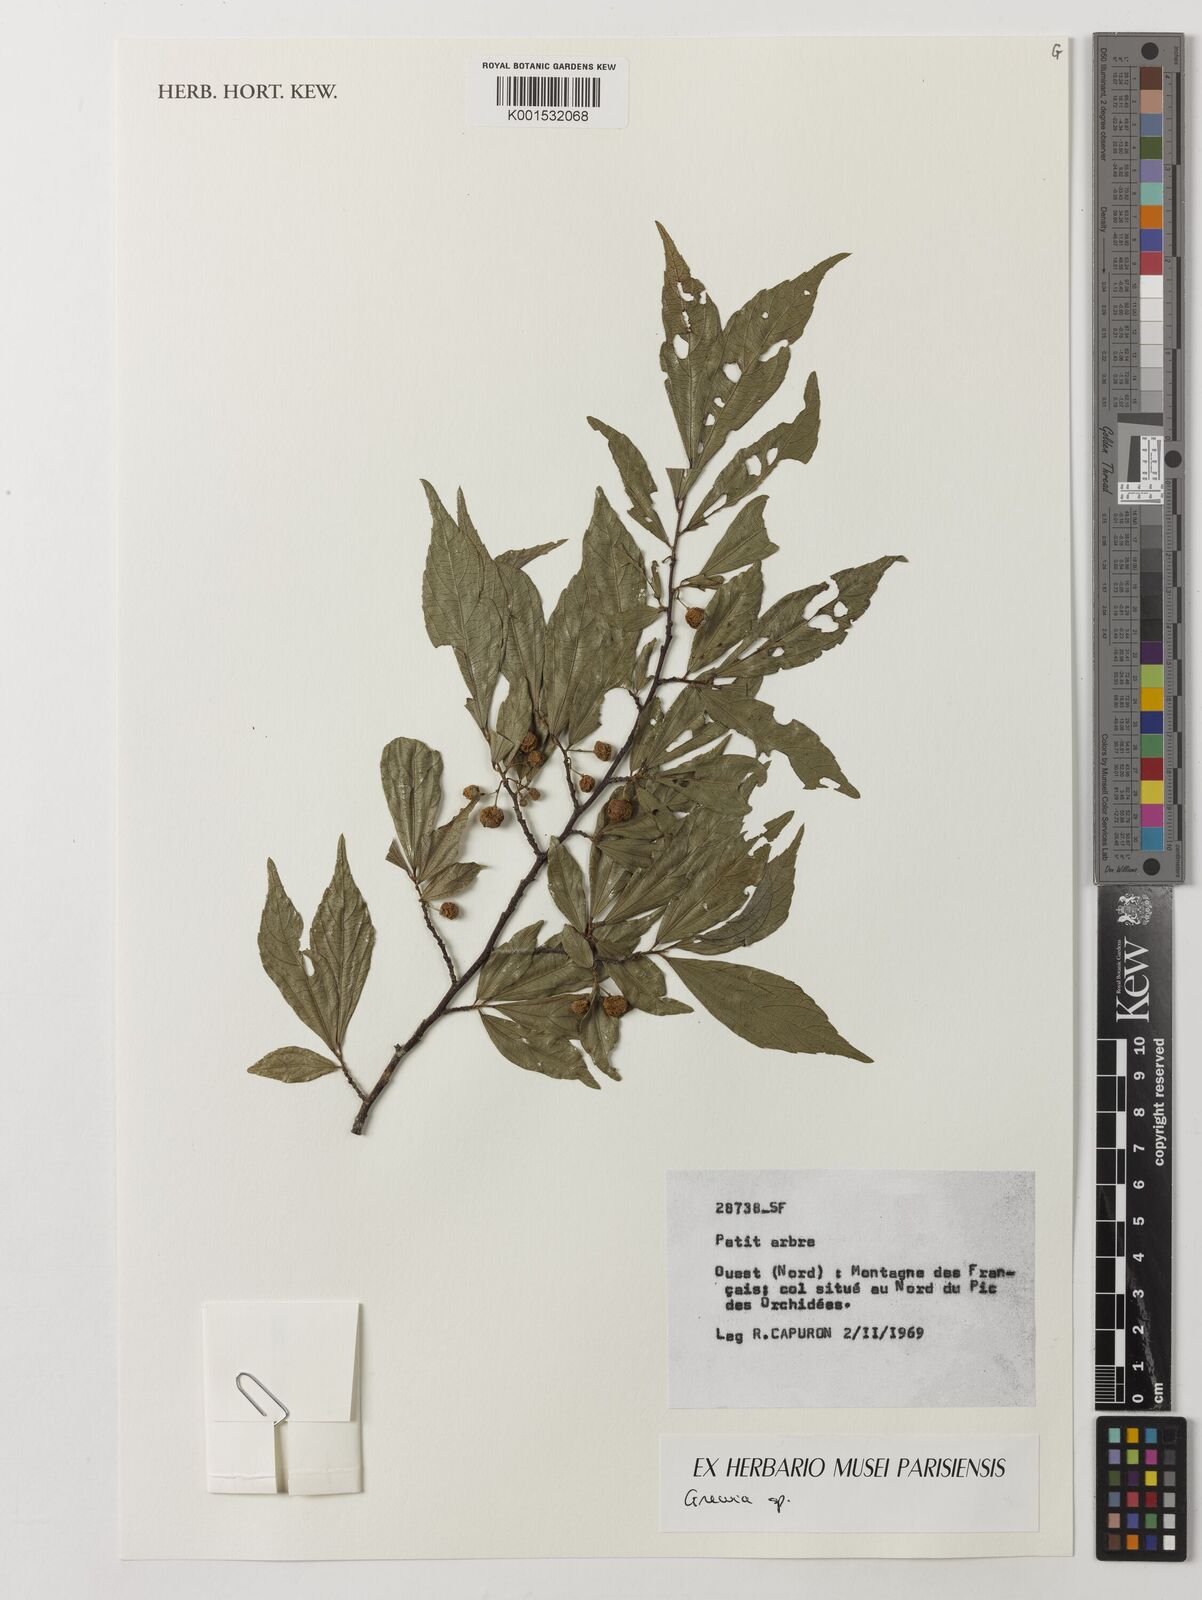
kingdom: Plantae
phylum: Tracheophyta
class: Magnoliopsida
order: Malvales
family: Malvaceae
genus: Grewia
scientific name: Grewia
